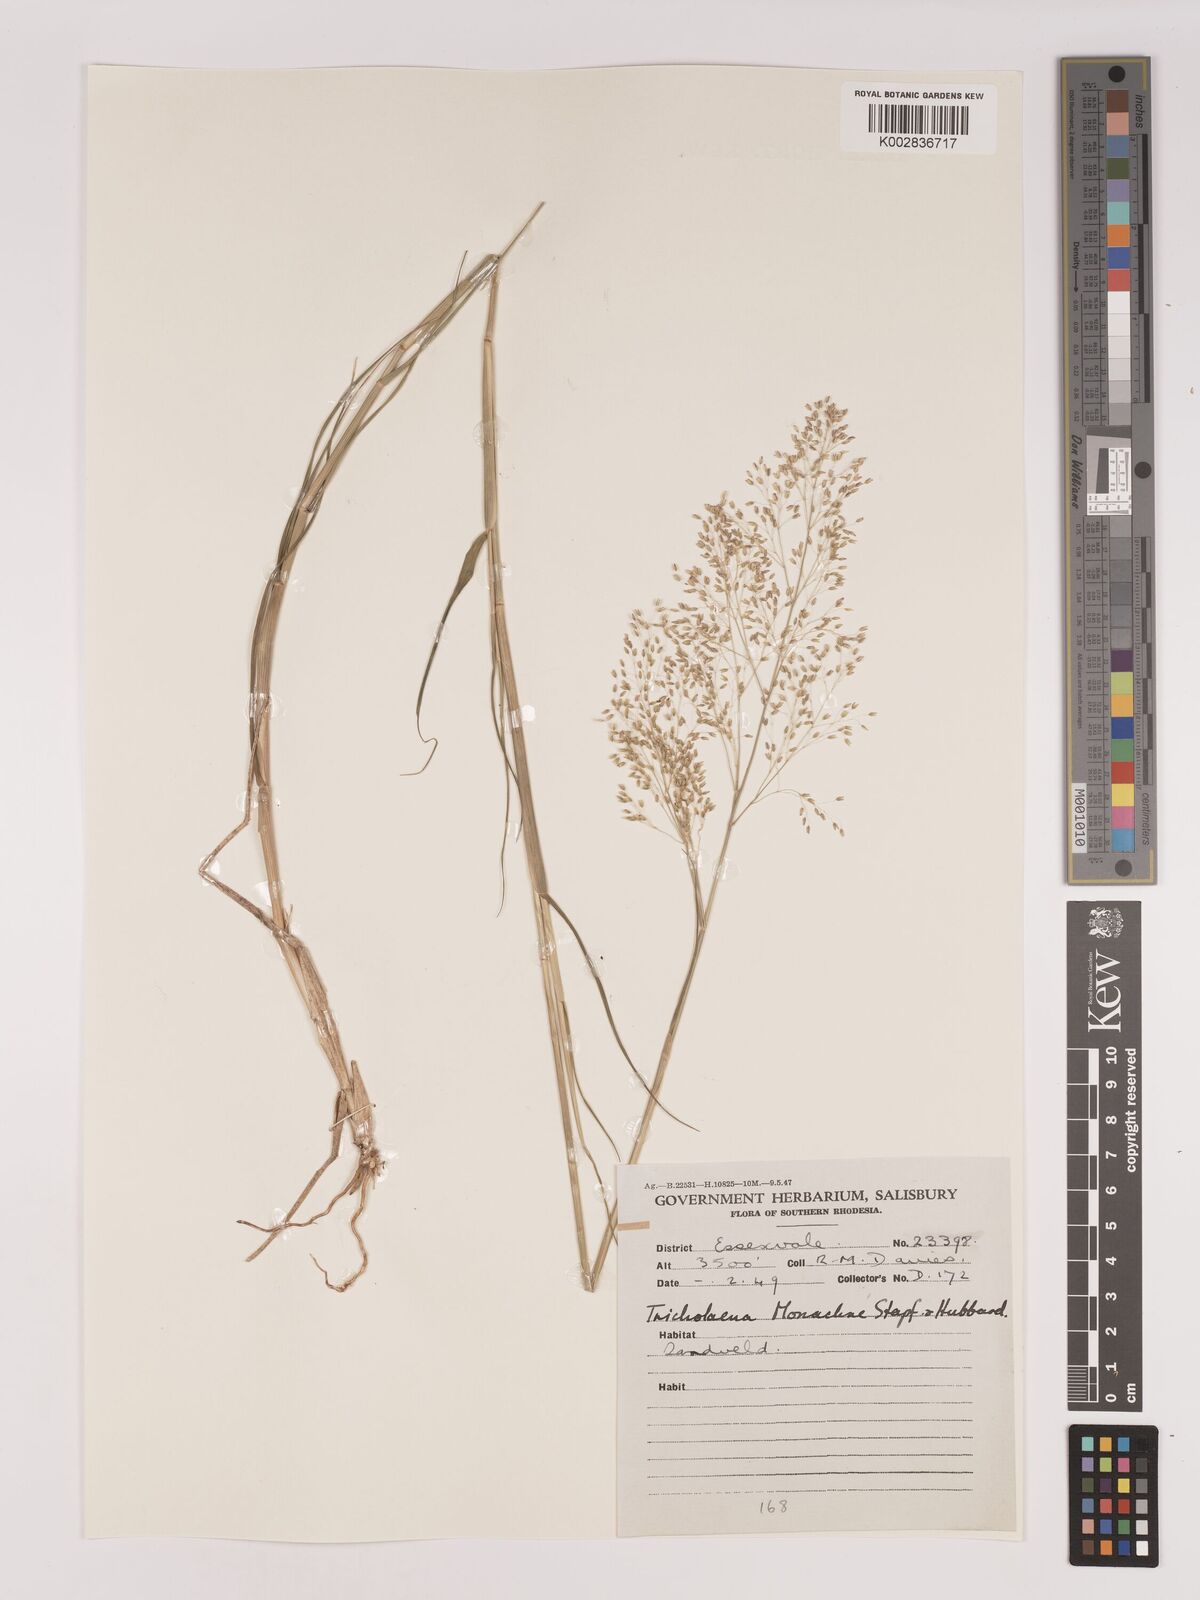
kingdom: Plantae
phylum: Tracheophyta
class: Liliopsida
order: Poales
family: Poaceae
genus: Tricholaena
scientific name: Tricholaena monachne
